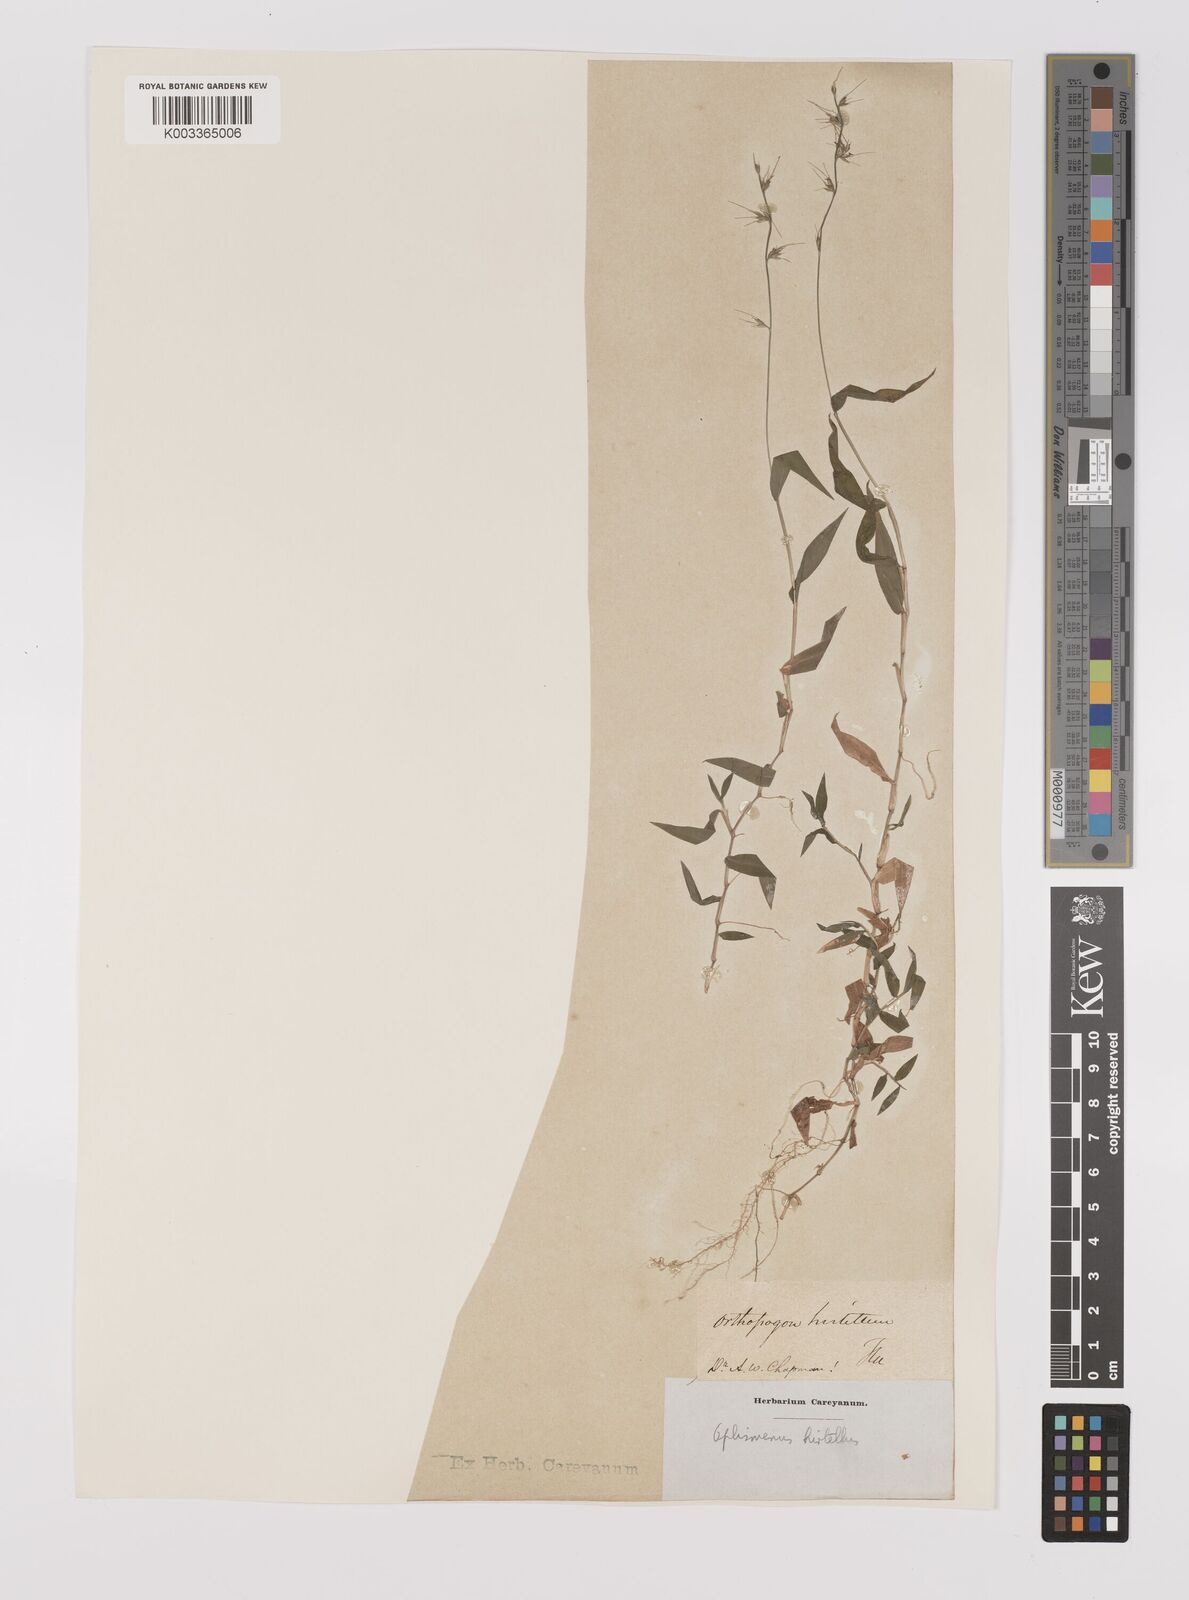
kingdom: Plantae
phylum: Tracheophyta
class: Liliopsida
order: Poales
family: Poaceae
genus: Oplismenus
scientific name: Oplismenus undulatifolius
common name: Wavyleaf basketgrass
